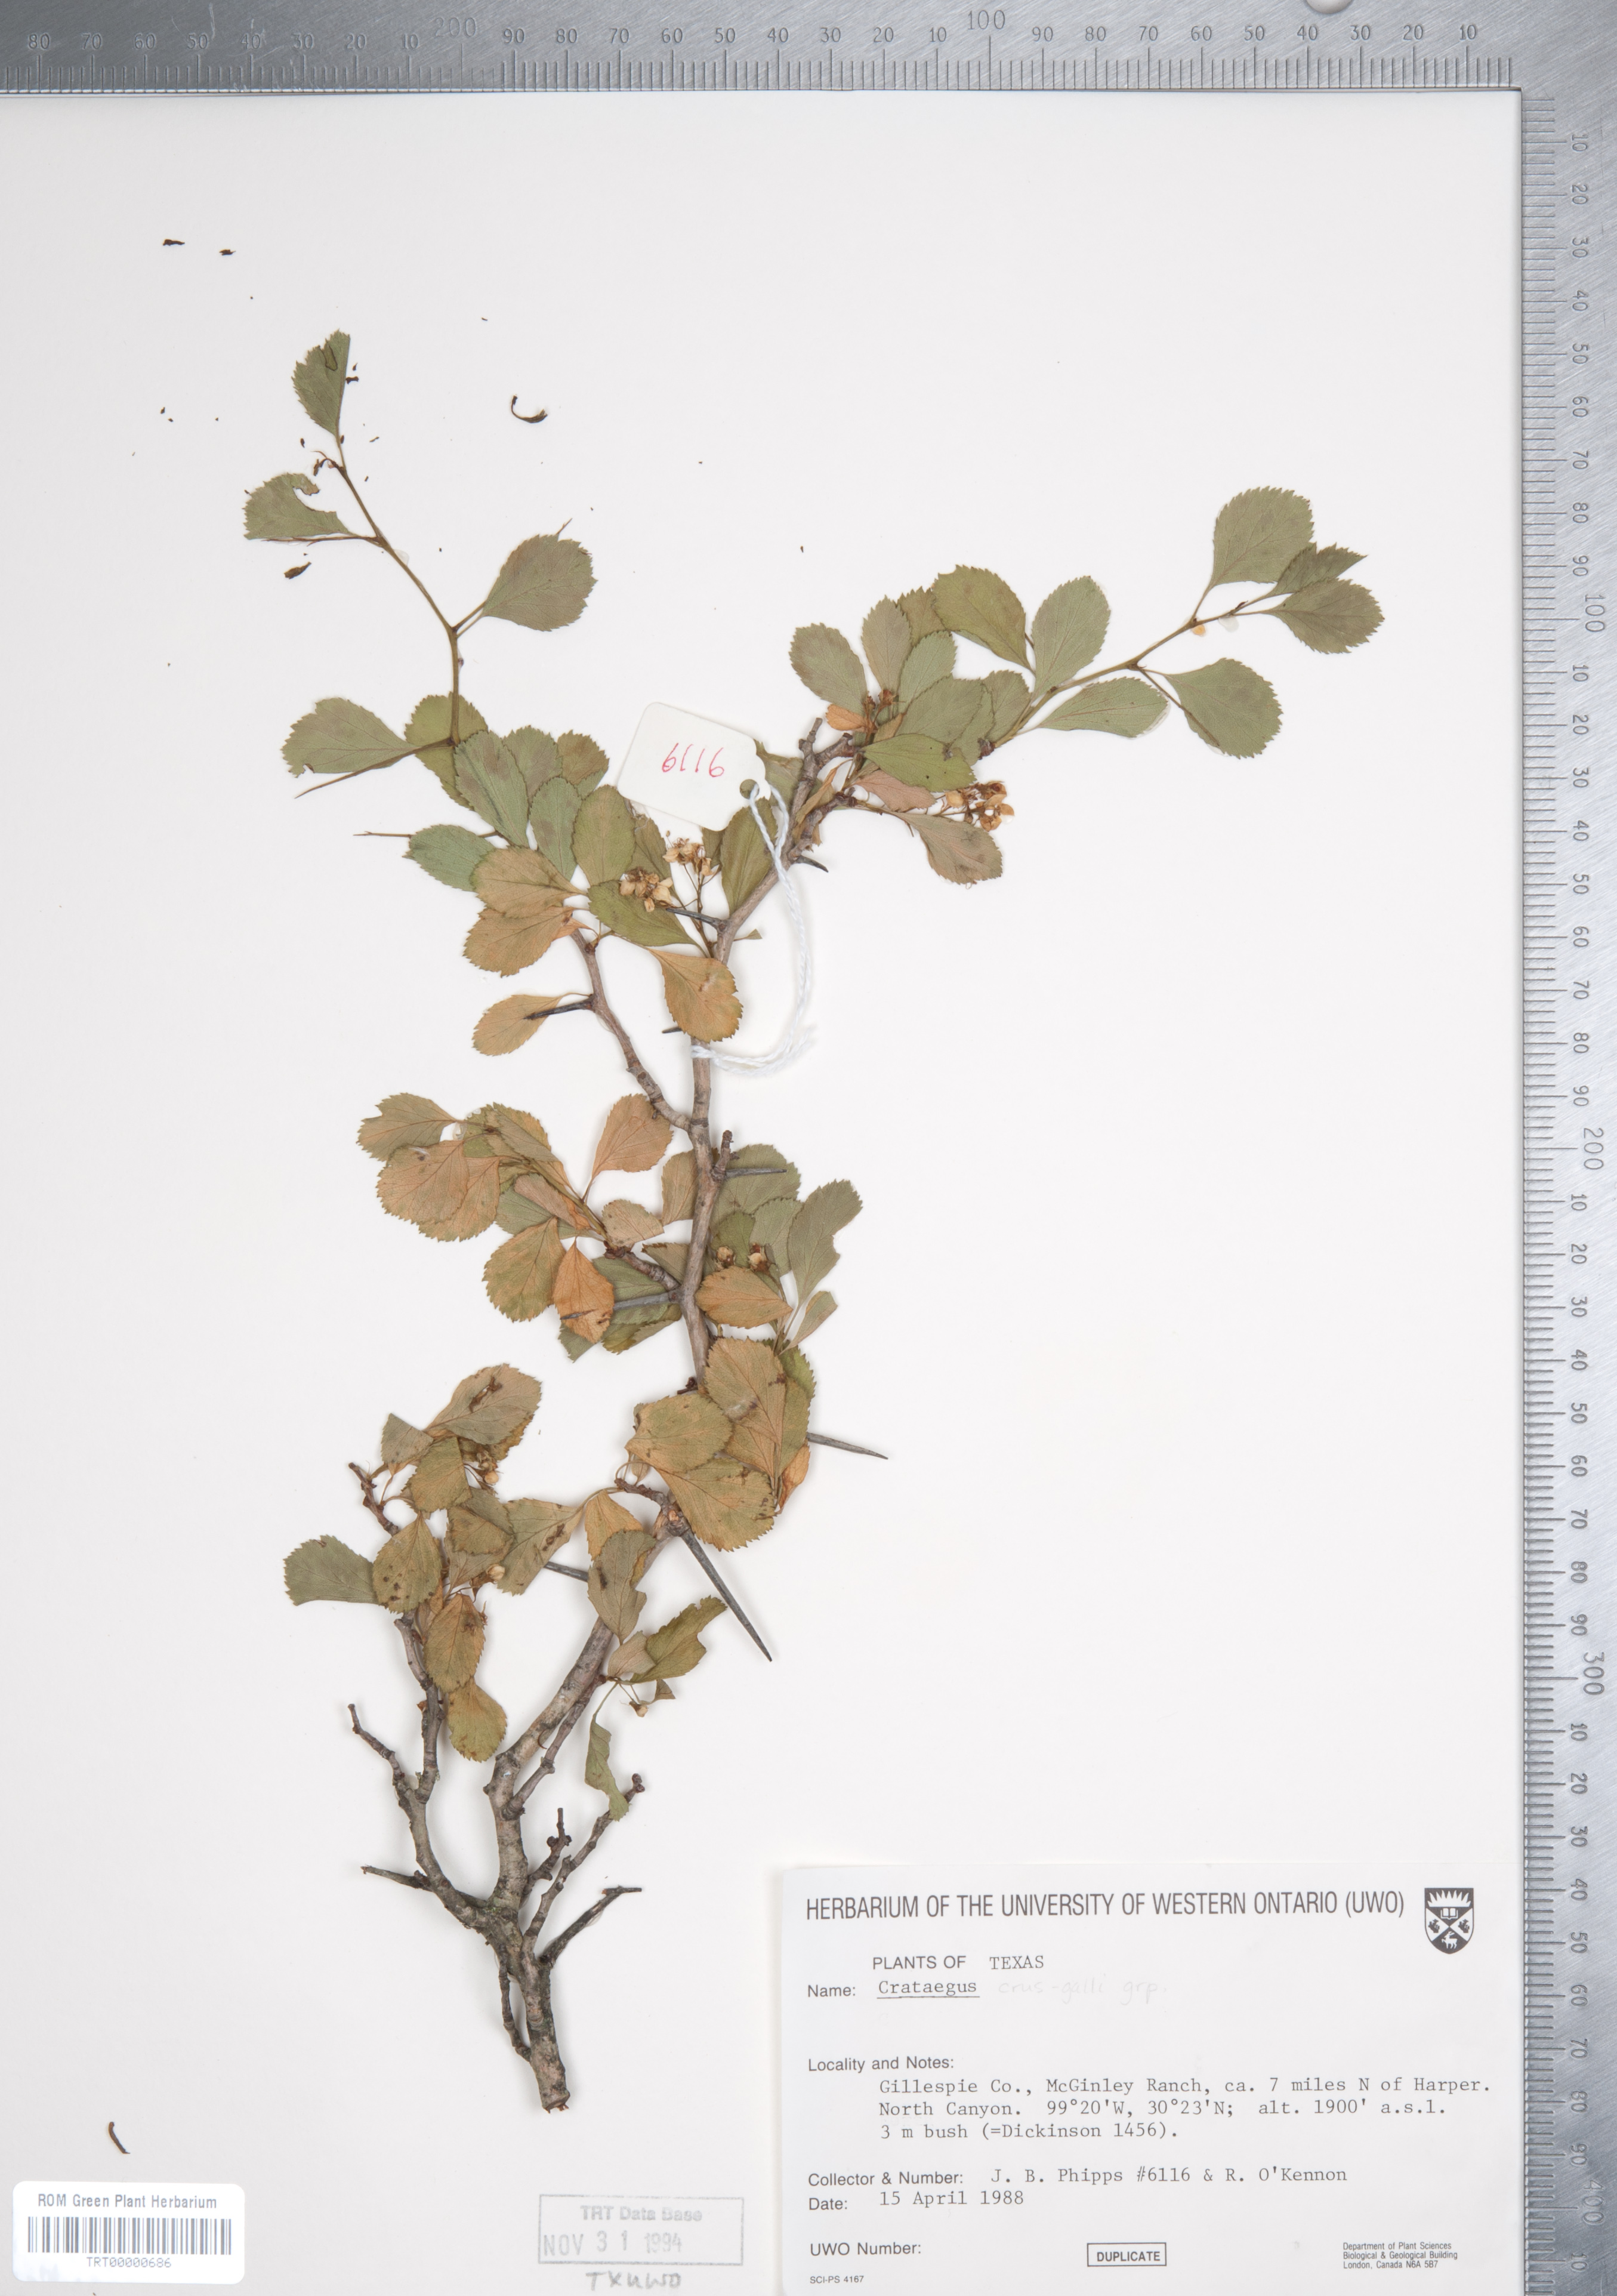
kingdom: Plantae
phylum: Tracheophyta
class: Magnoliopsida
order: Rosales
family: Rosaceae
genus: Crataegus
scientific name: Crataegus crus-galli
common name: Cockspurthorn
